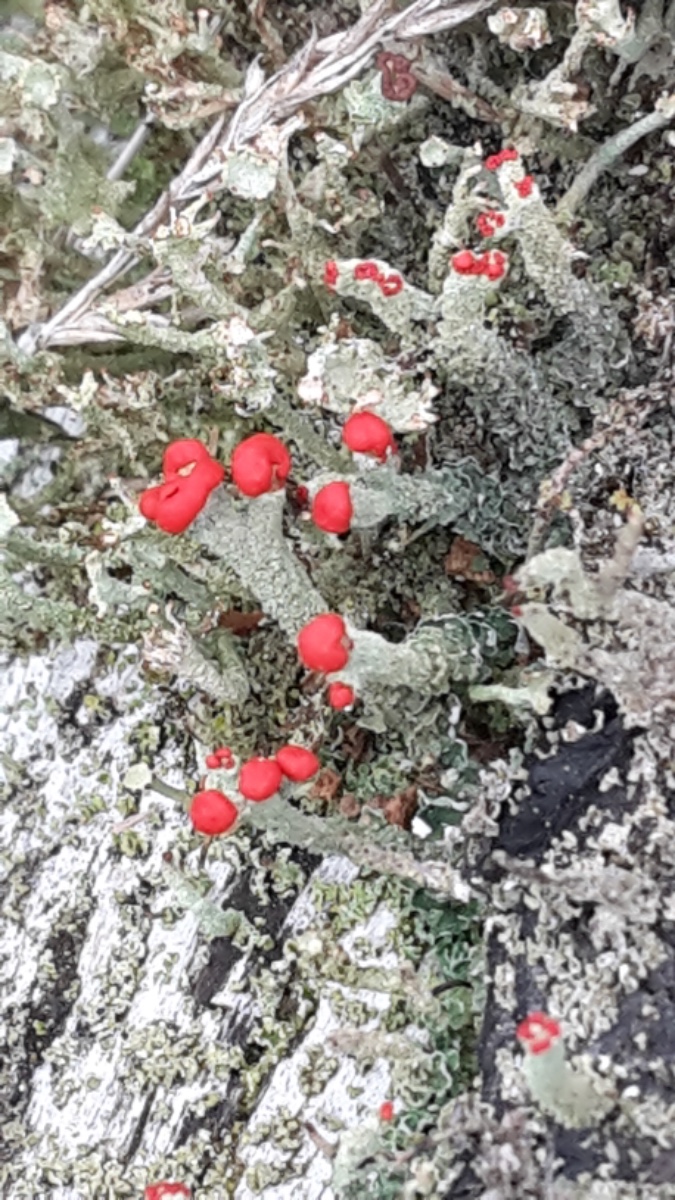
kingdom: Fungi
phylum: Ascomycota
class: Lecanoromycetes
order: Lecanorales
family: Cladoniaceae
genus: Cladonia
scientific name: Cladonia floerkeana
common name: lakrød bægerlav
